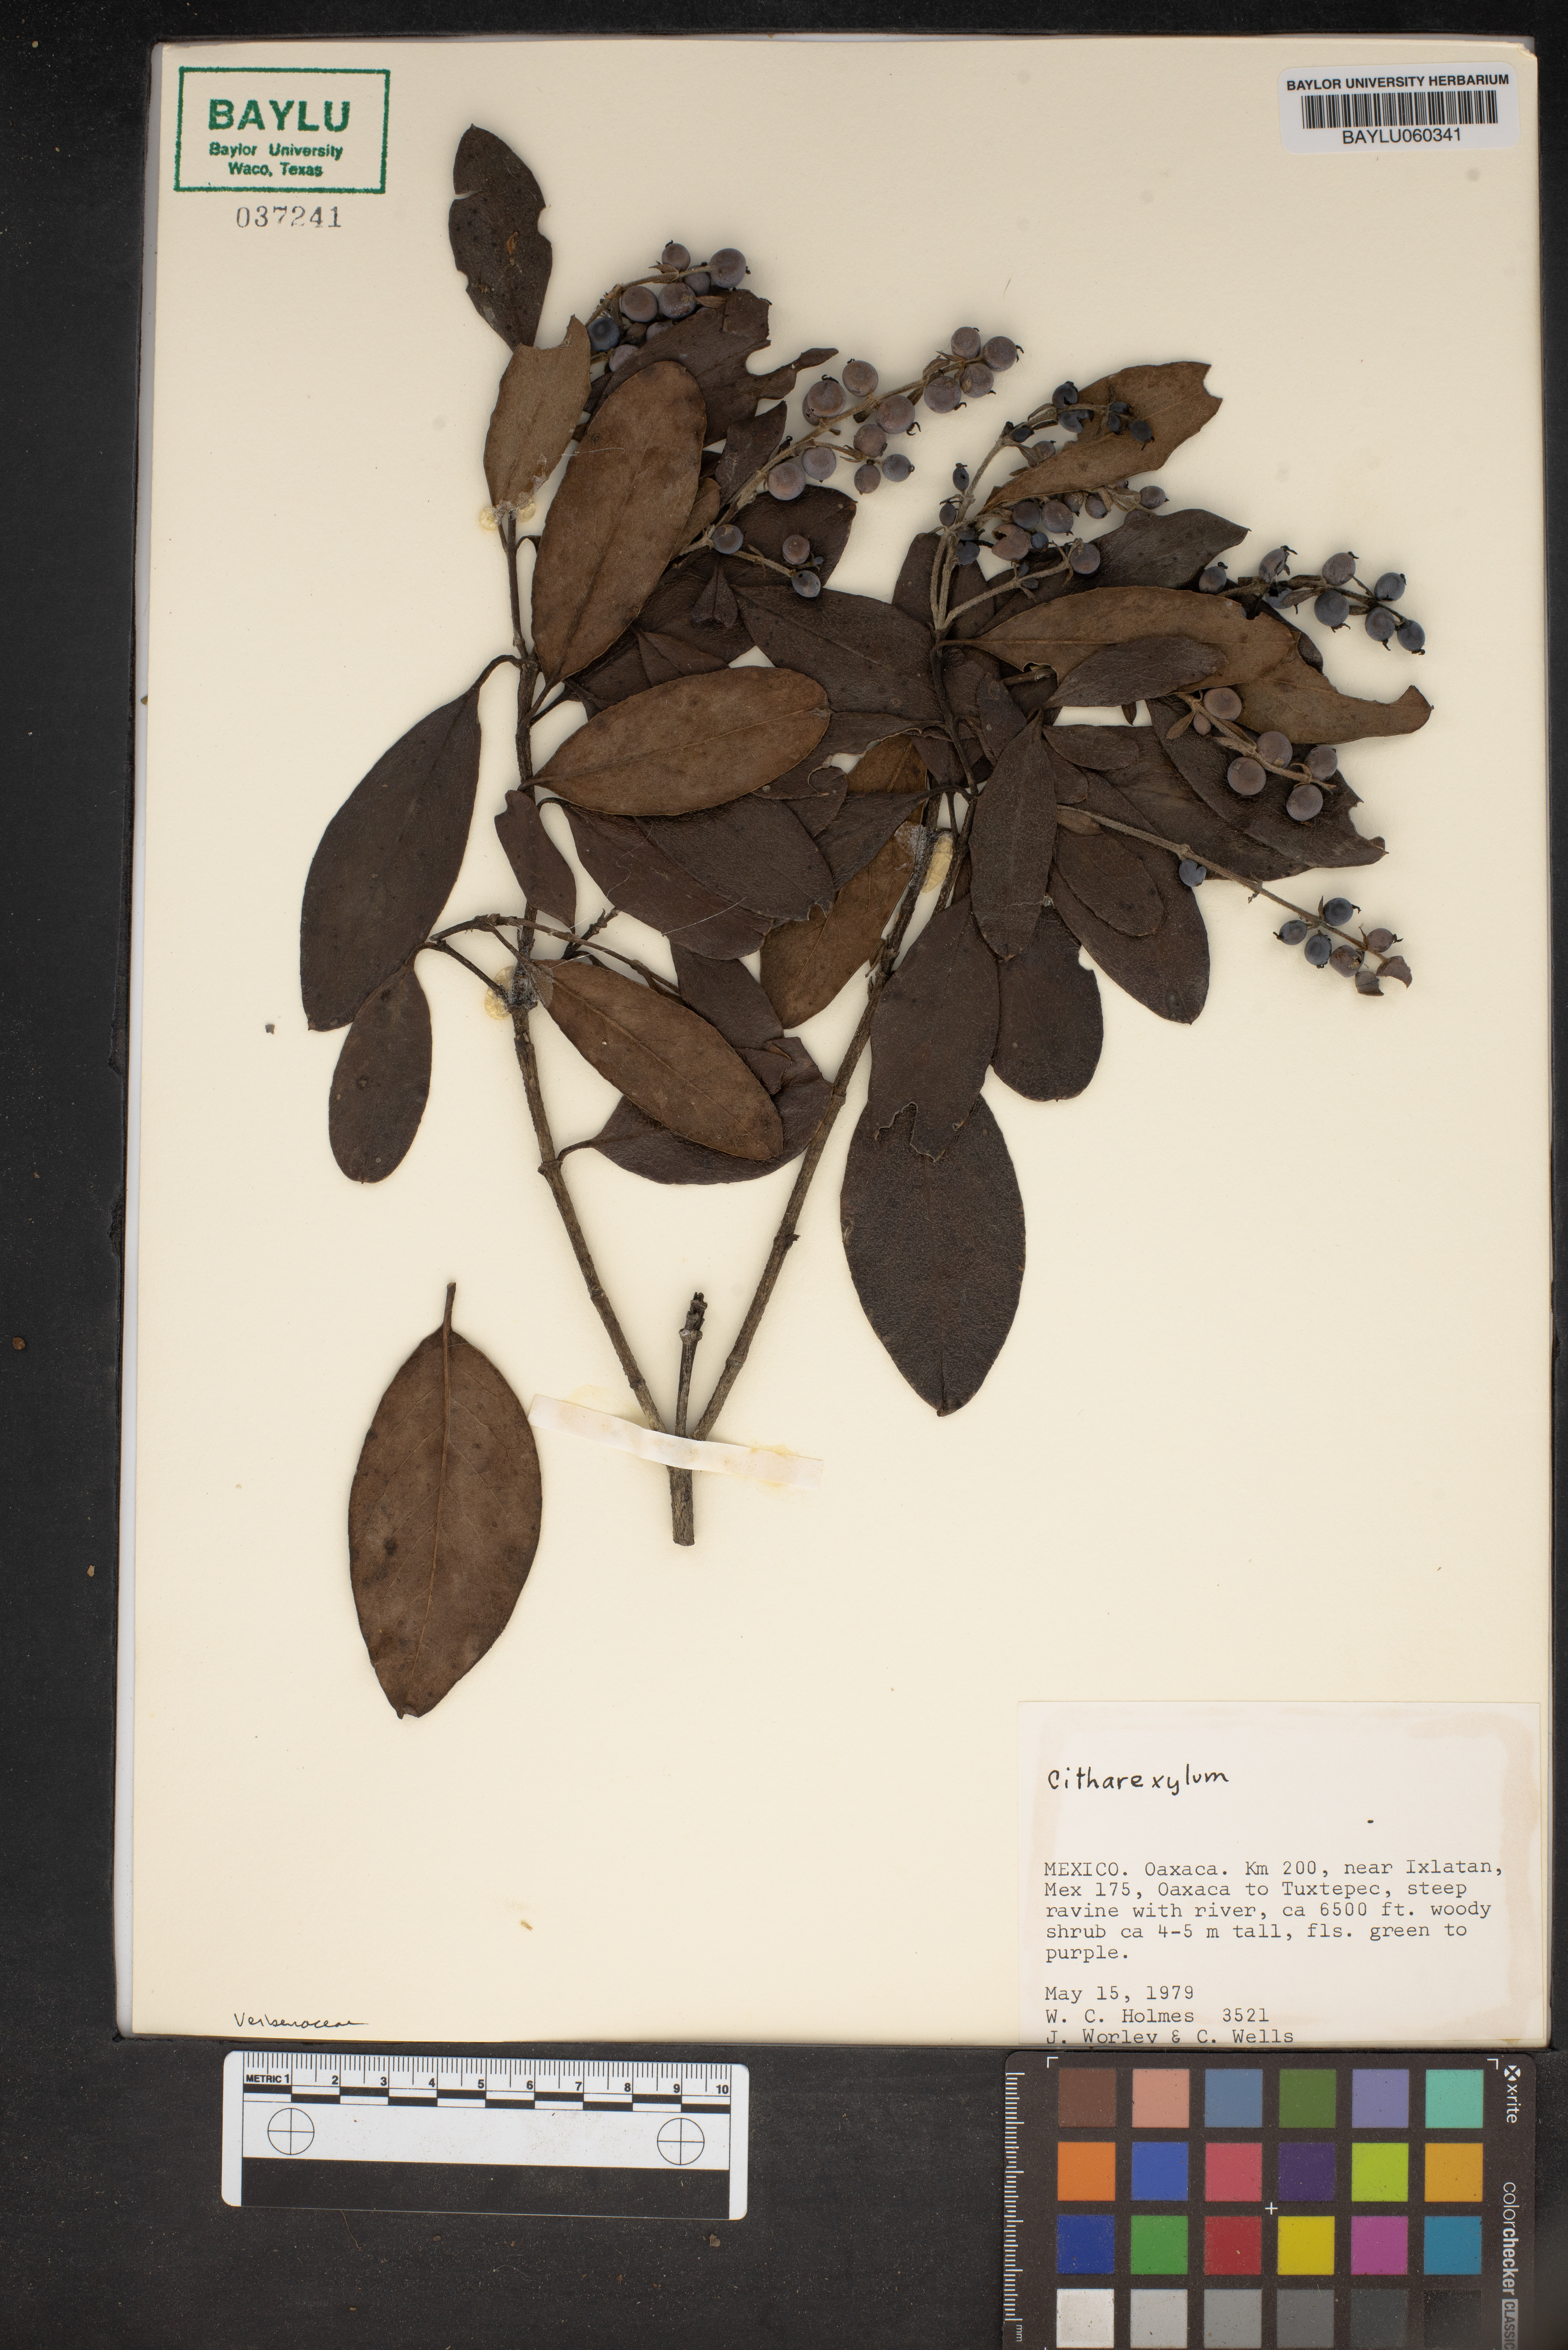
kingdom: Plantae
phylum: Tracheophyta
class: Magnoliopsida
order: Lamiales
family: Verbenaceae
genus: Citharexylum
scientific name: Citharexylum
